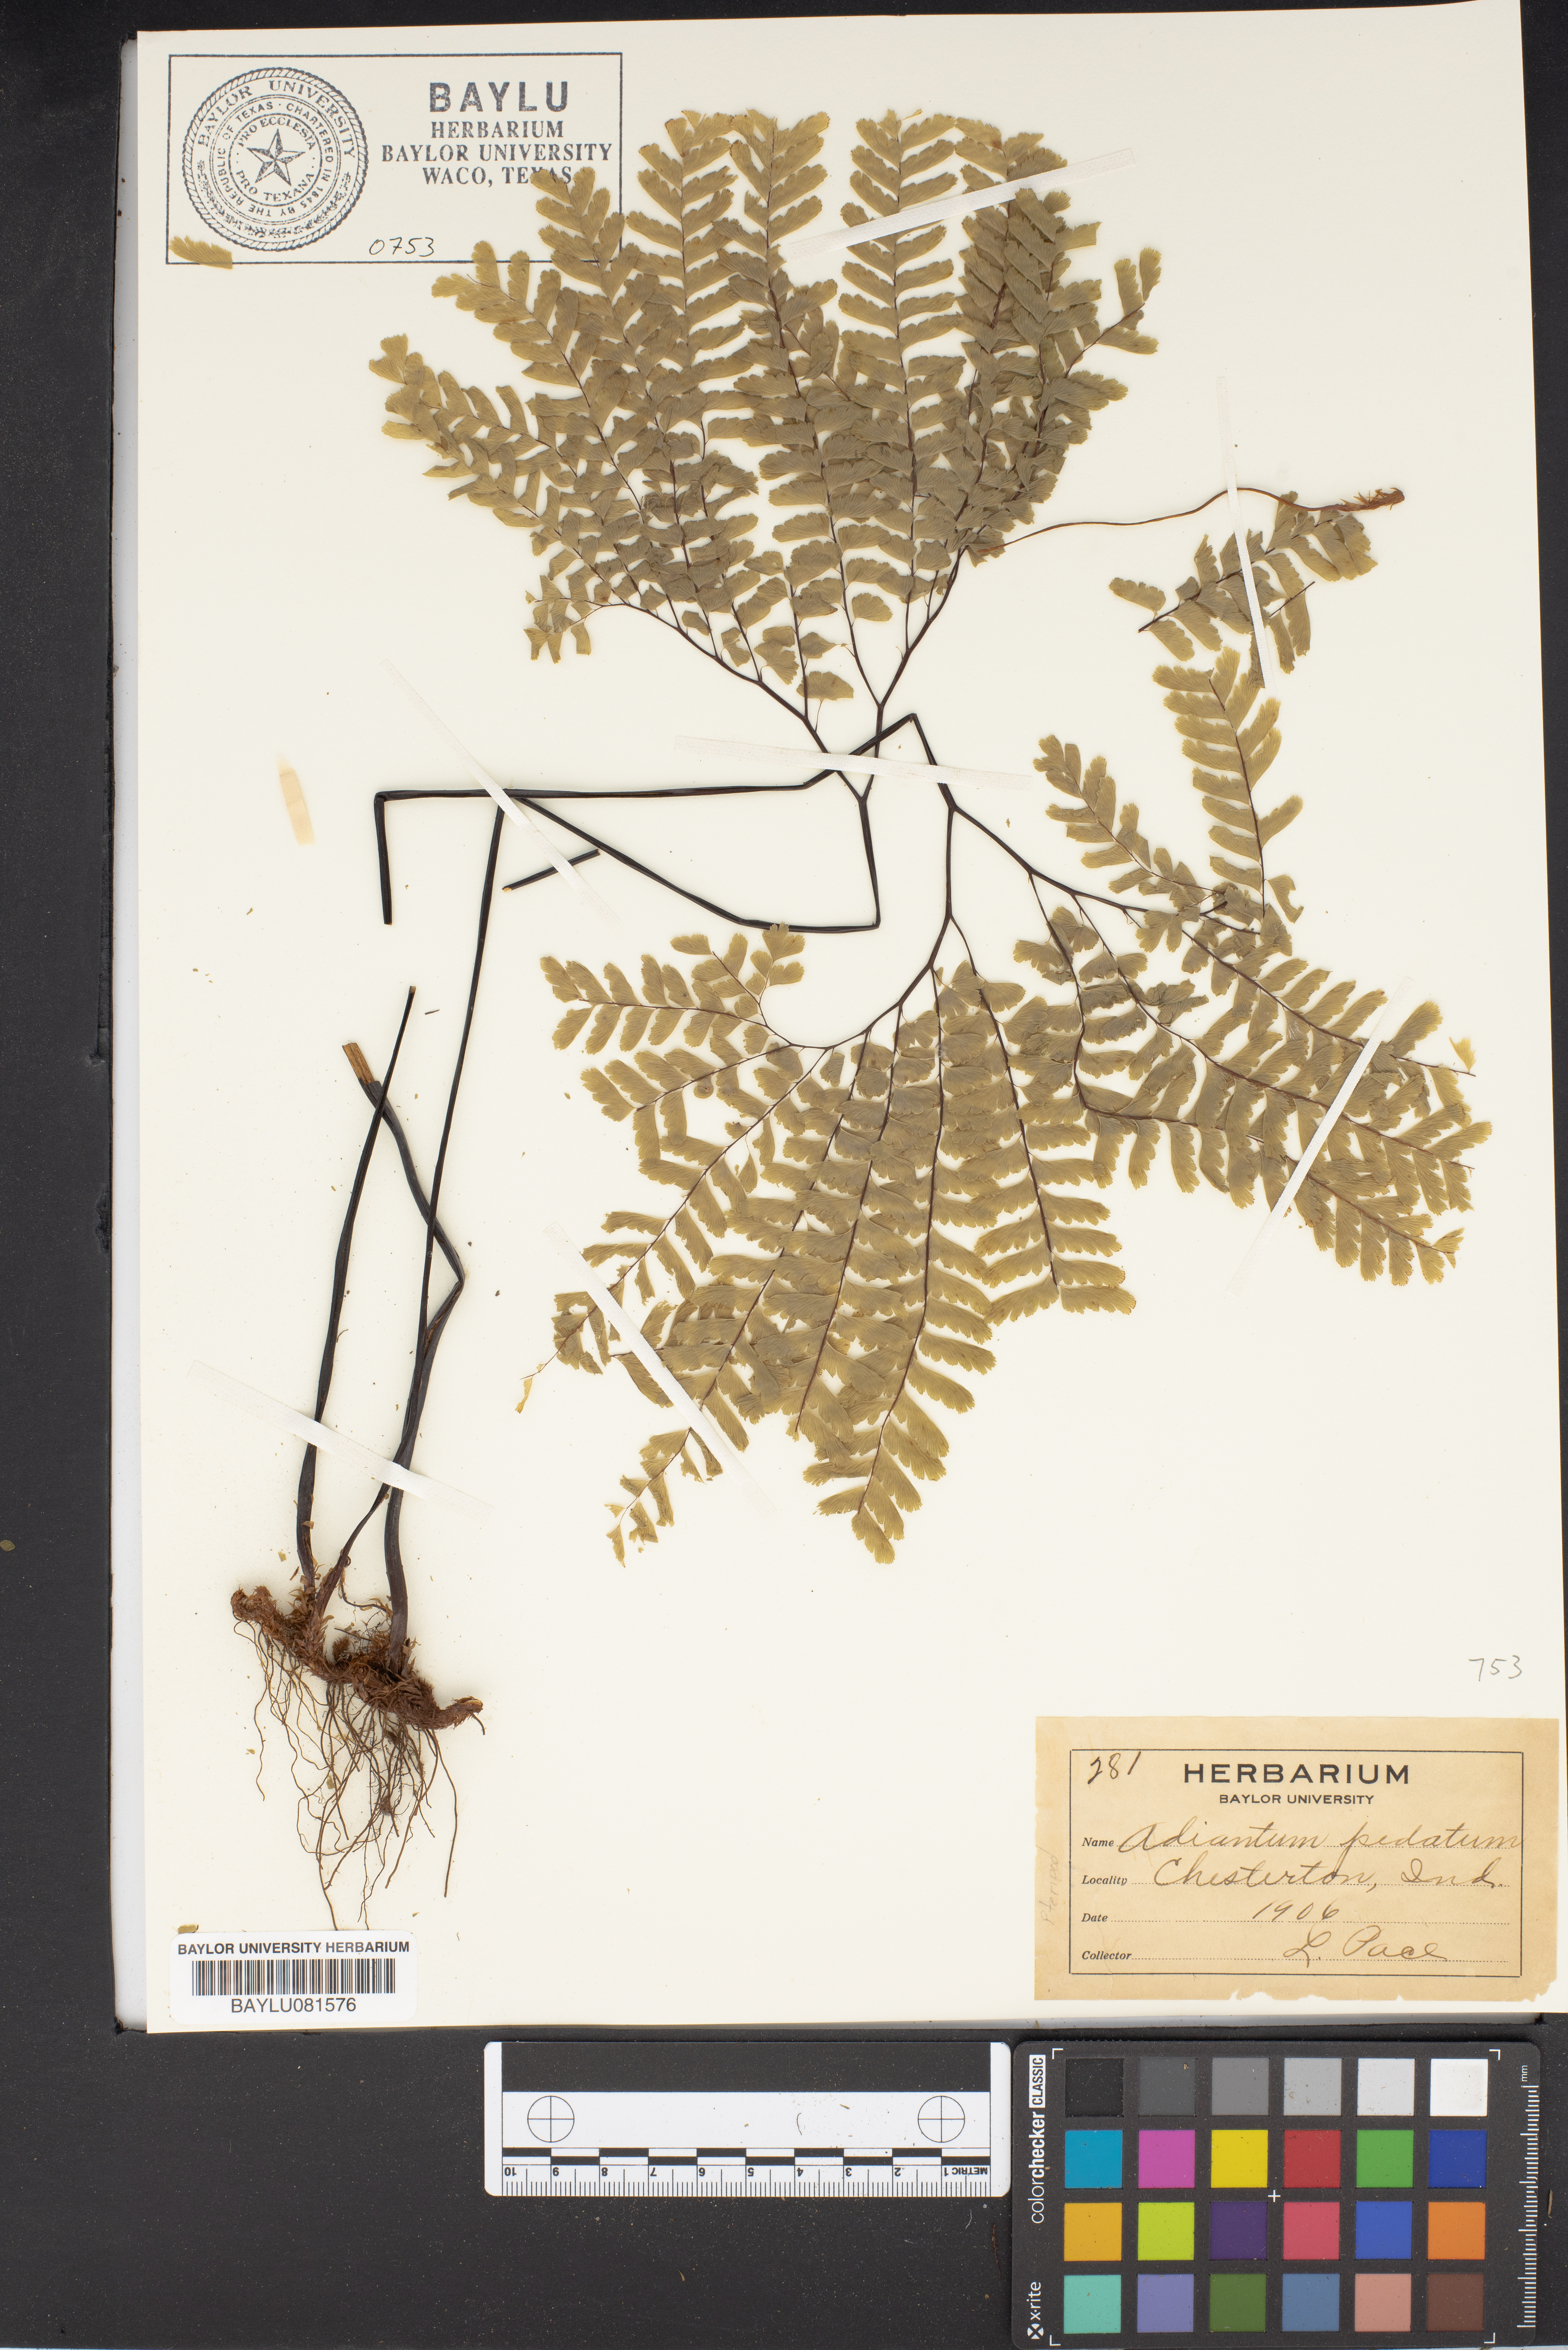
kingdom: Plantae
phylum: Tracheophyta
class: Polypodiopsida
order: Polypodiales
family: Pteridaceae
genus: Adiantum
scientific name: Adiantum pedatum
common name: Five-finger fern
